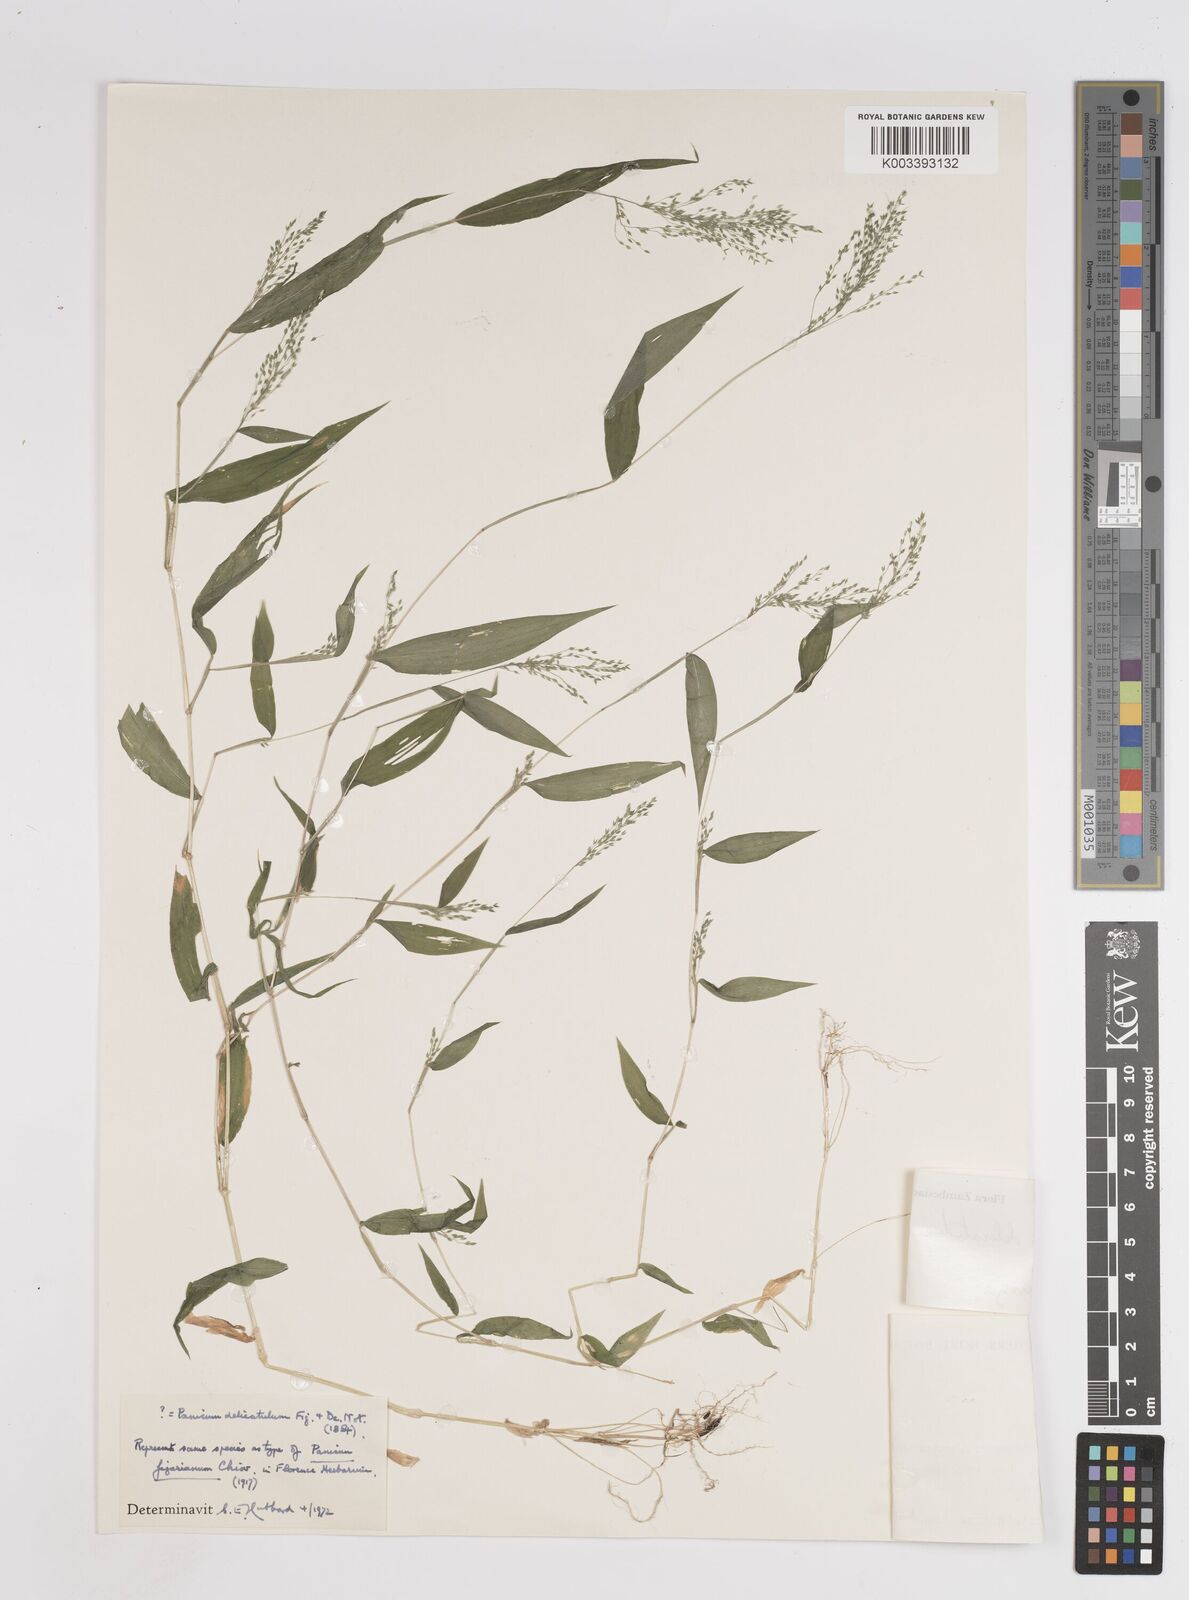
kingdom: Plantae
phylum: Tracheophyta
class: Liliopsida
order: Poales
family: Poaceae
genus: Panicum
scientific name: Panicum delicatulum
